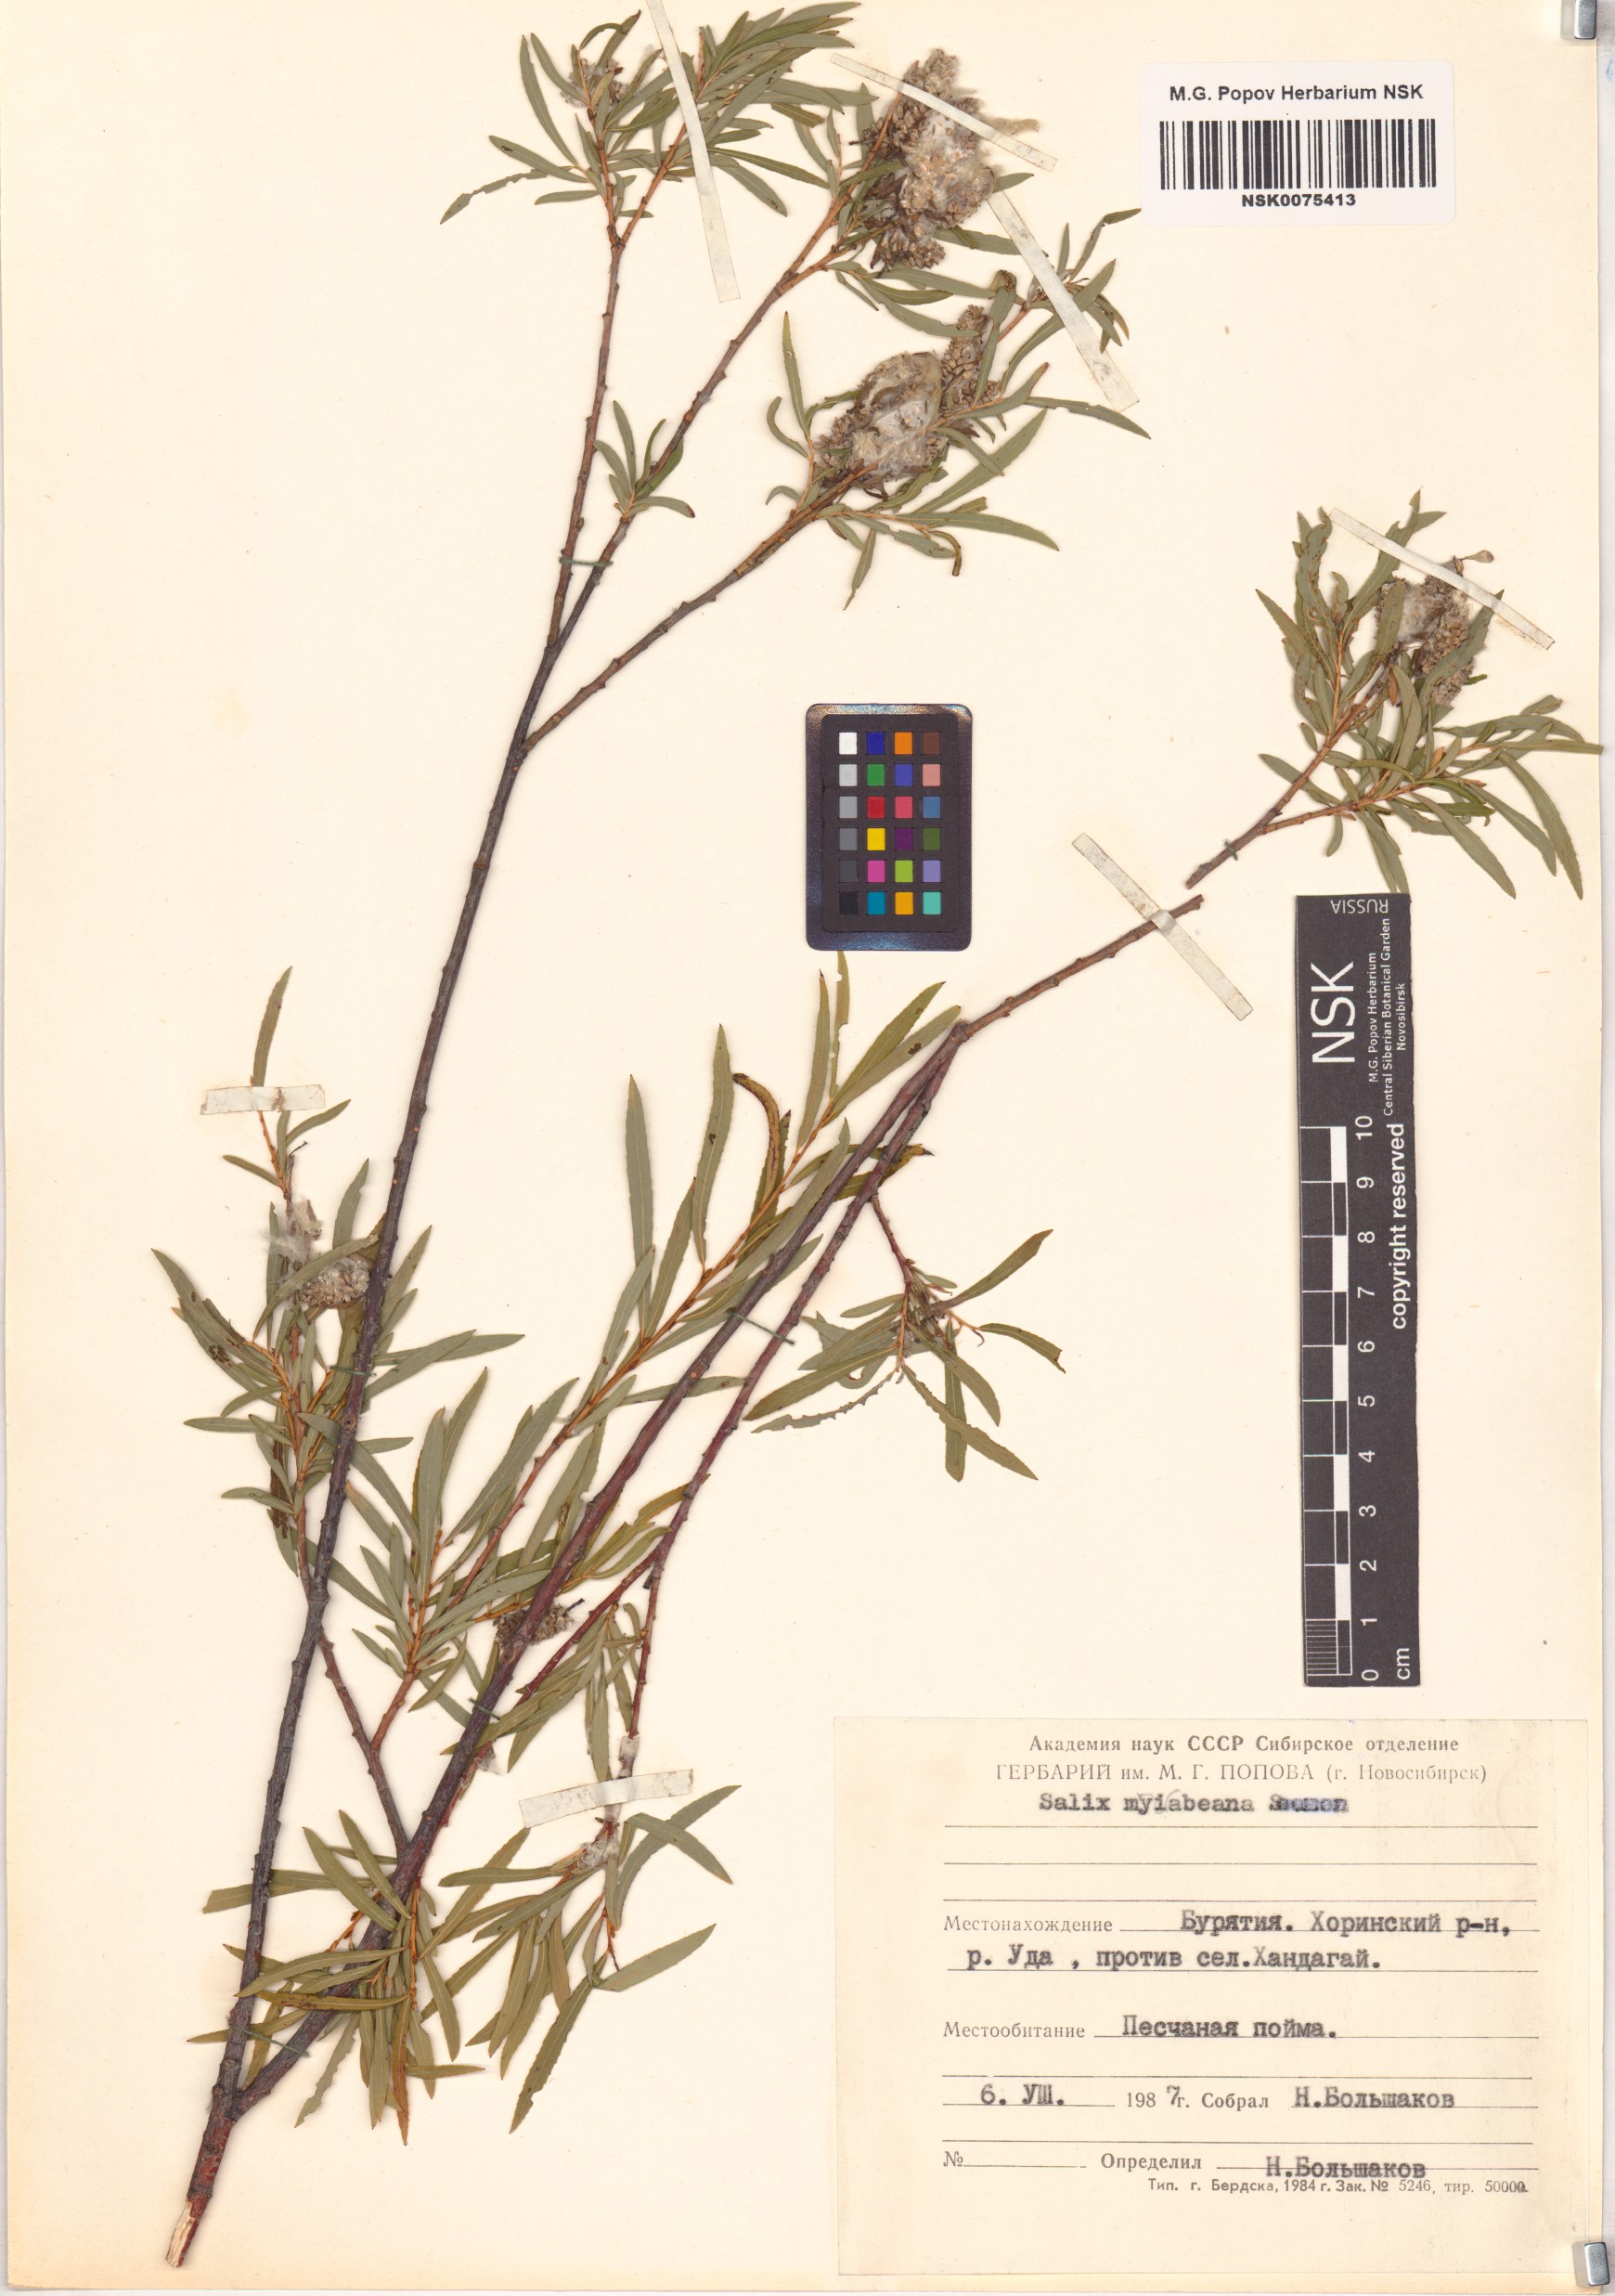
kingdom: Plantae
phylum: Tracheophyta
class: Magnoliopsida
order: Malpighiales
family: Salicaceae
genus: Salix
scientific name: Salix miyabeana
